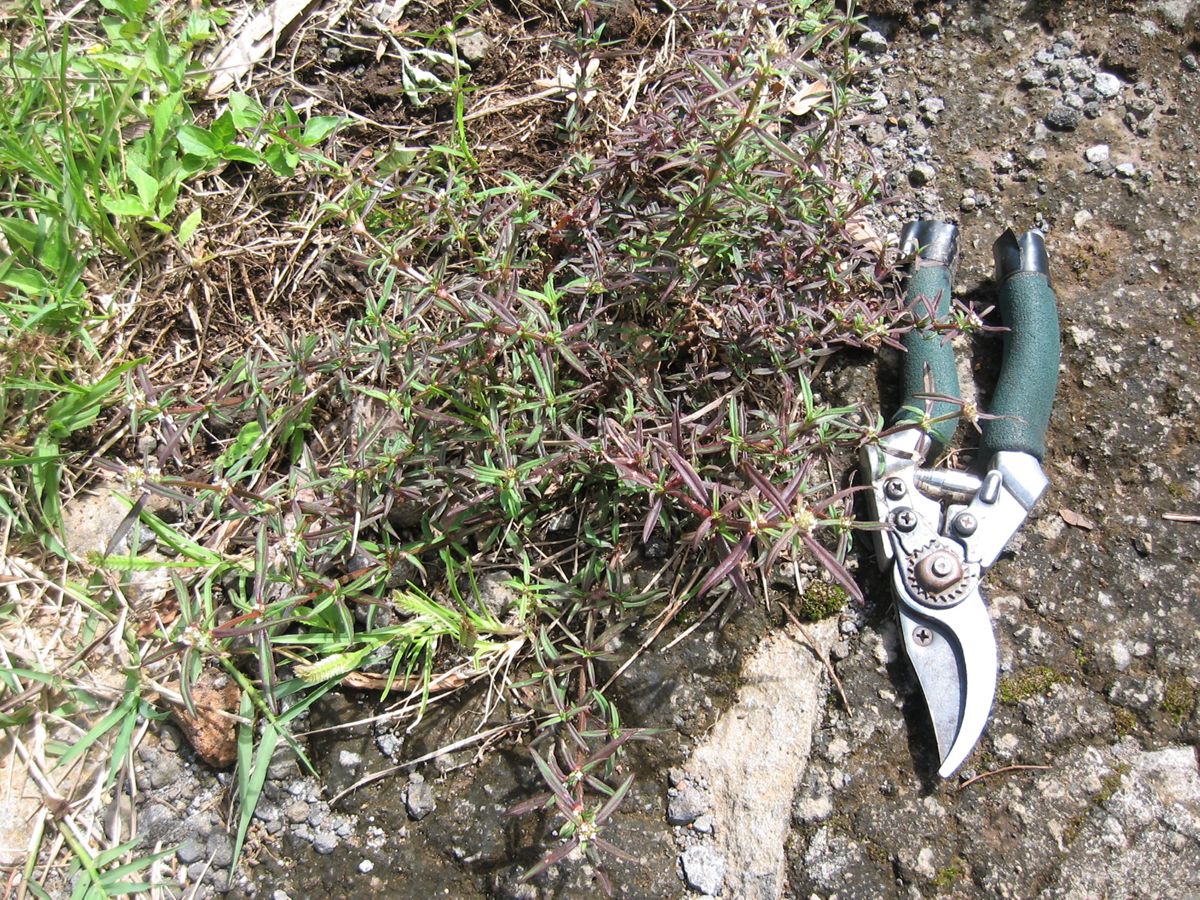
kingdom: Plantae
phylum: Tracheophyta
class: Magnoliopsida
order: Gentianales
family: Rubiaceae
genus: Spermacoce
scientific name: Spermacoce suaveolens
